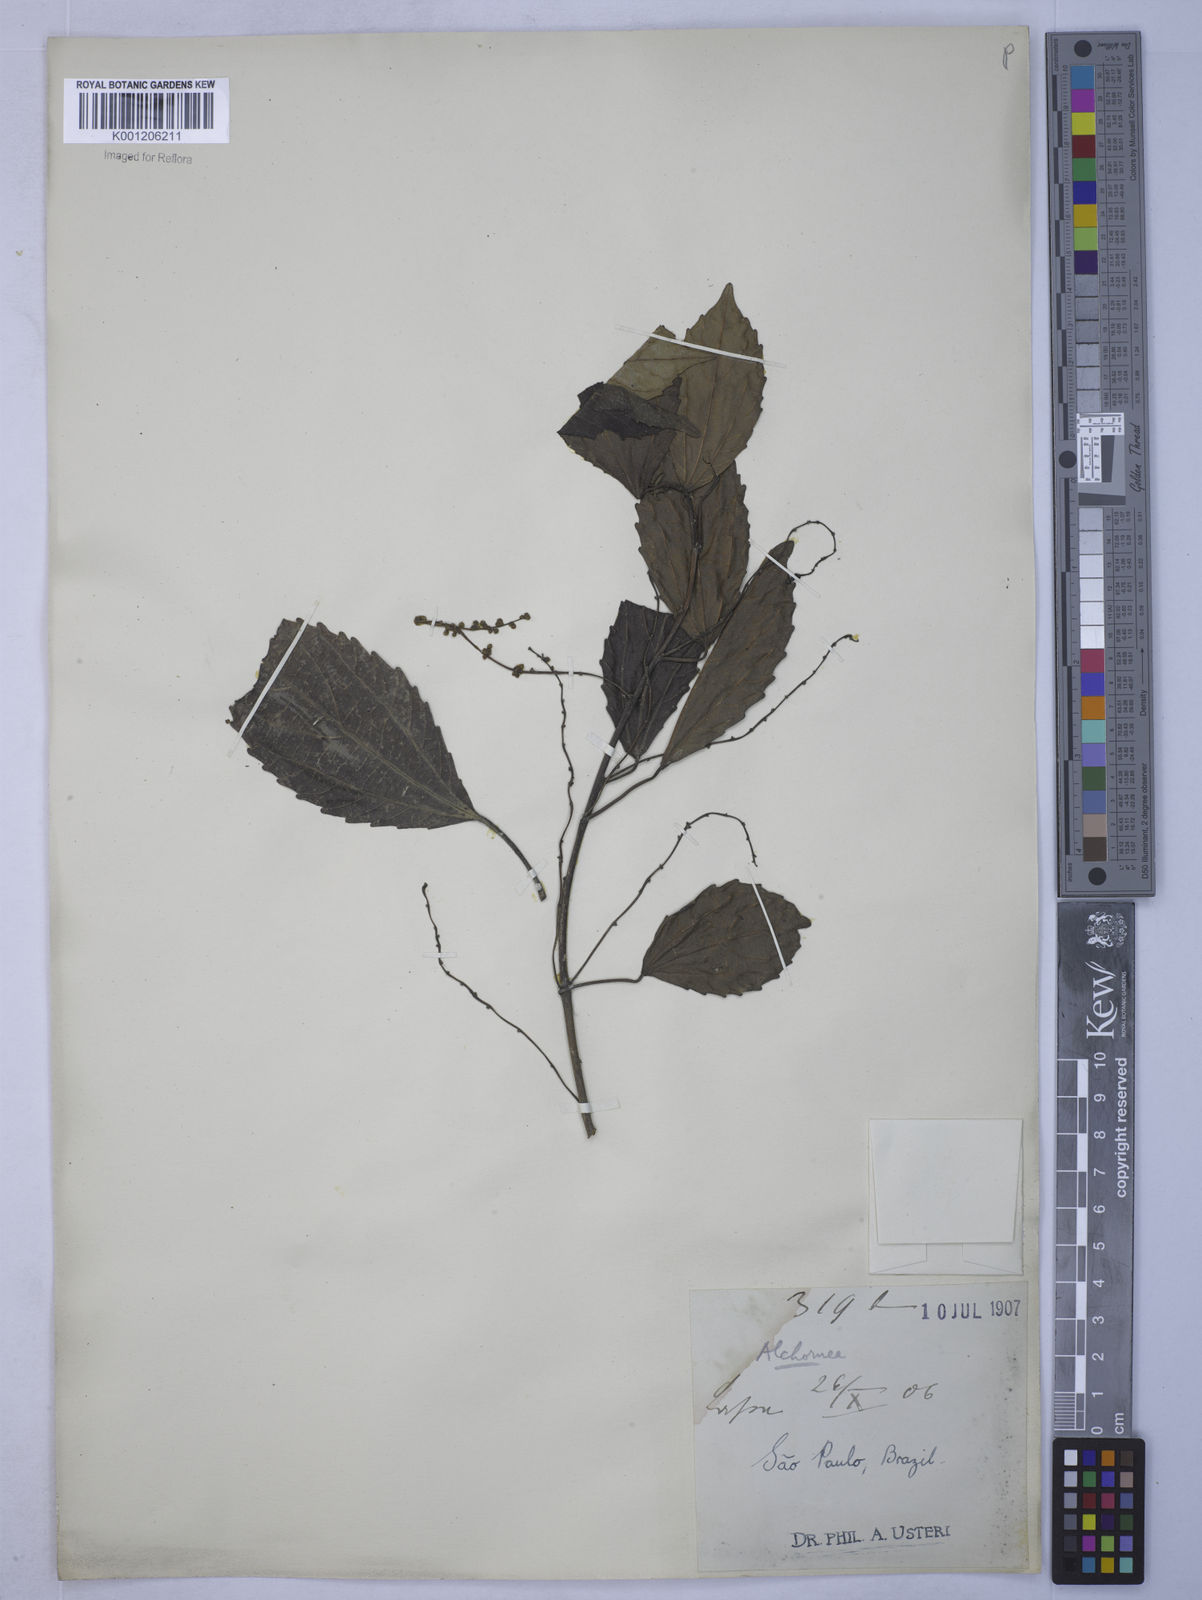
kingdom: Plantae
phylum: Tracheophyta
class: Magnoliopsida
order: Malpighiales
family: Euphorbiaceae
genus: Alchornea
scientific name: Alchornea
